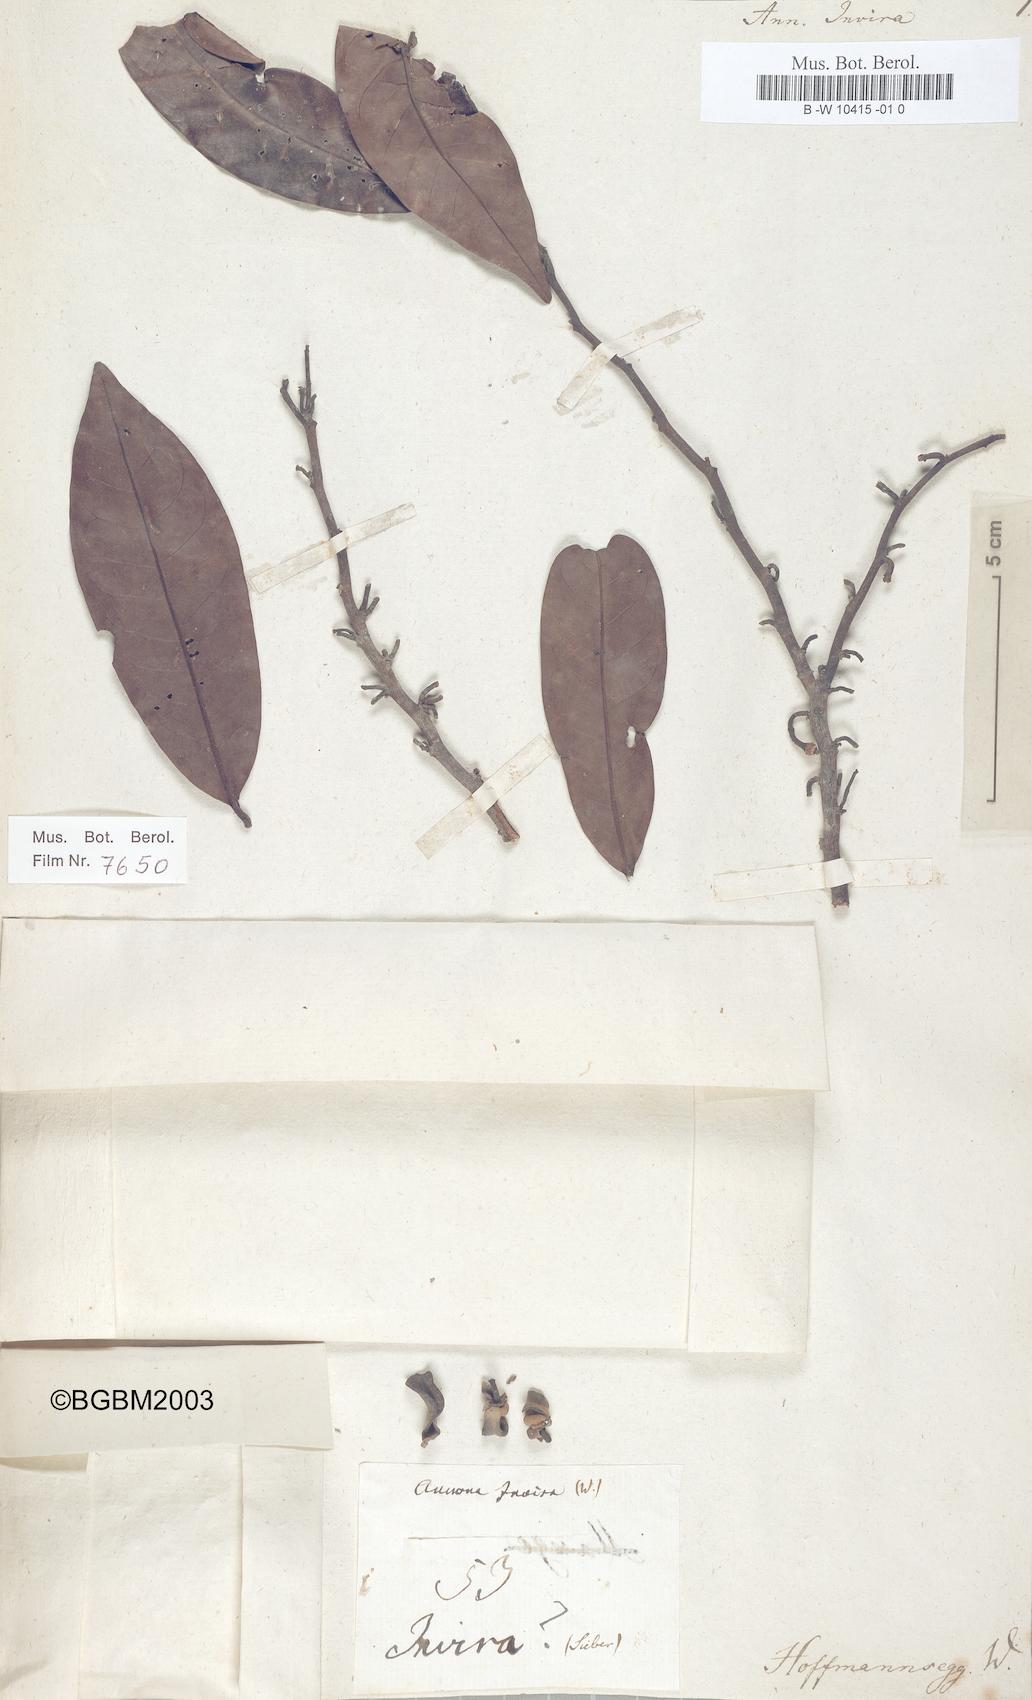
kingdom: Plantae
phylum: Tracheophyta
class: Magnoliopsida
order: Magnoliales
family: Annonaceae
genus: Annona
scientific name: Annona
